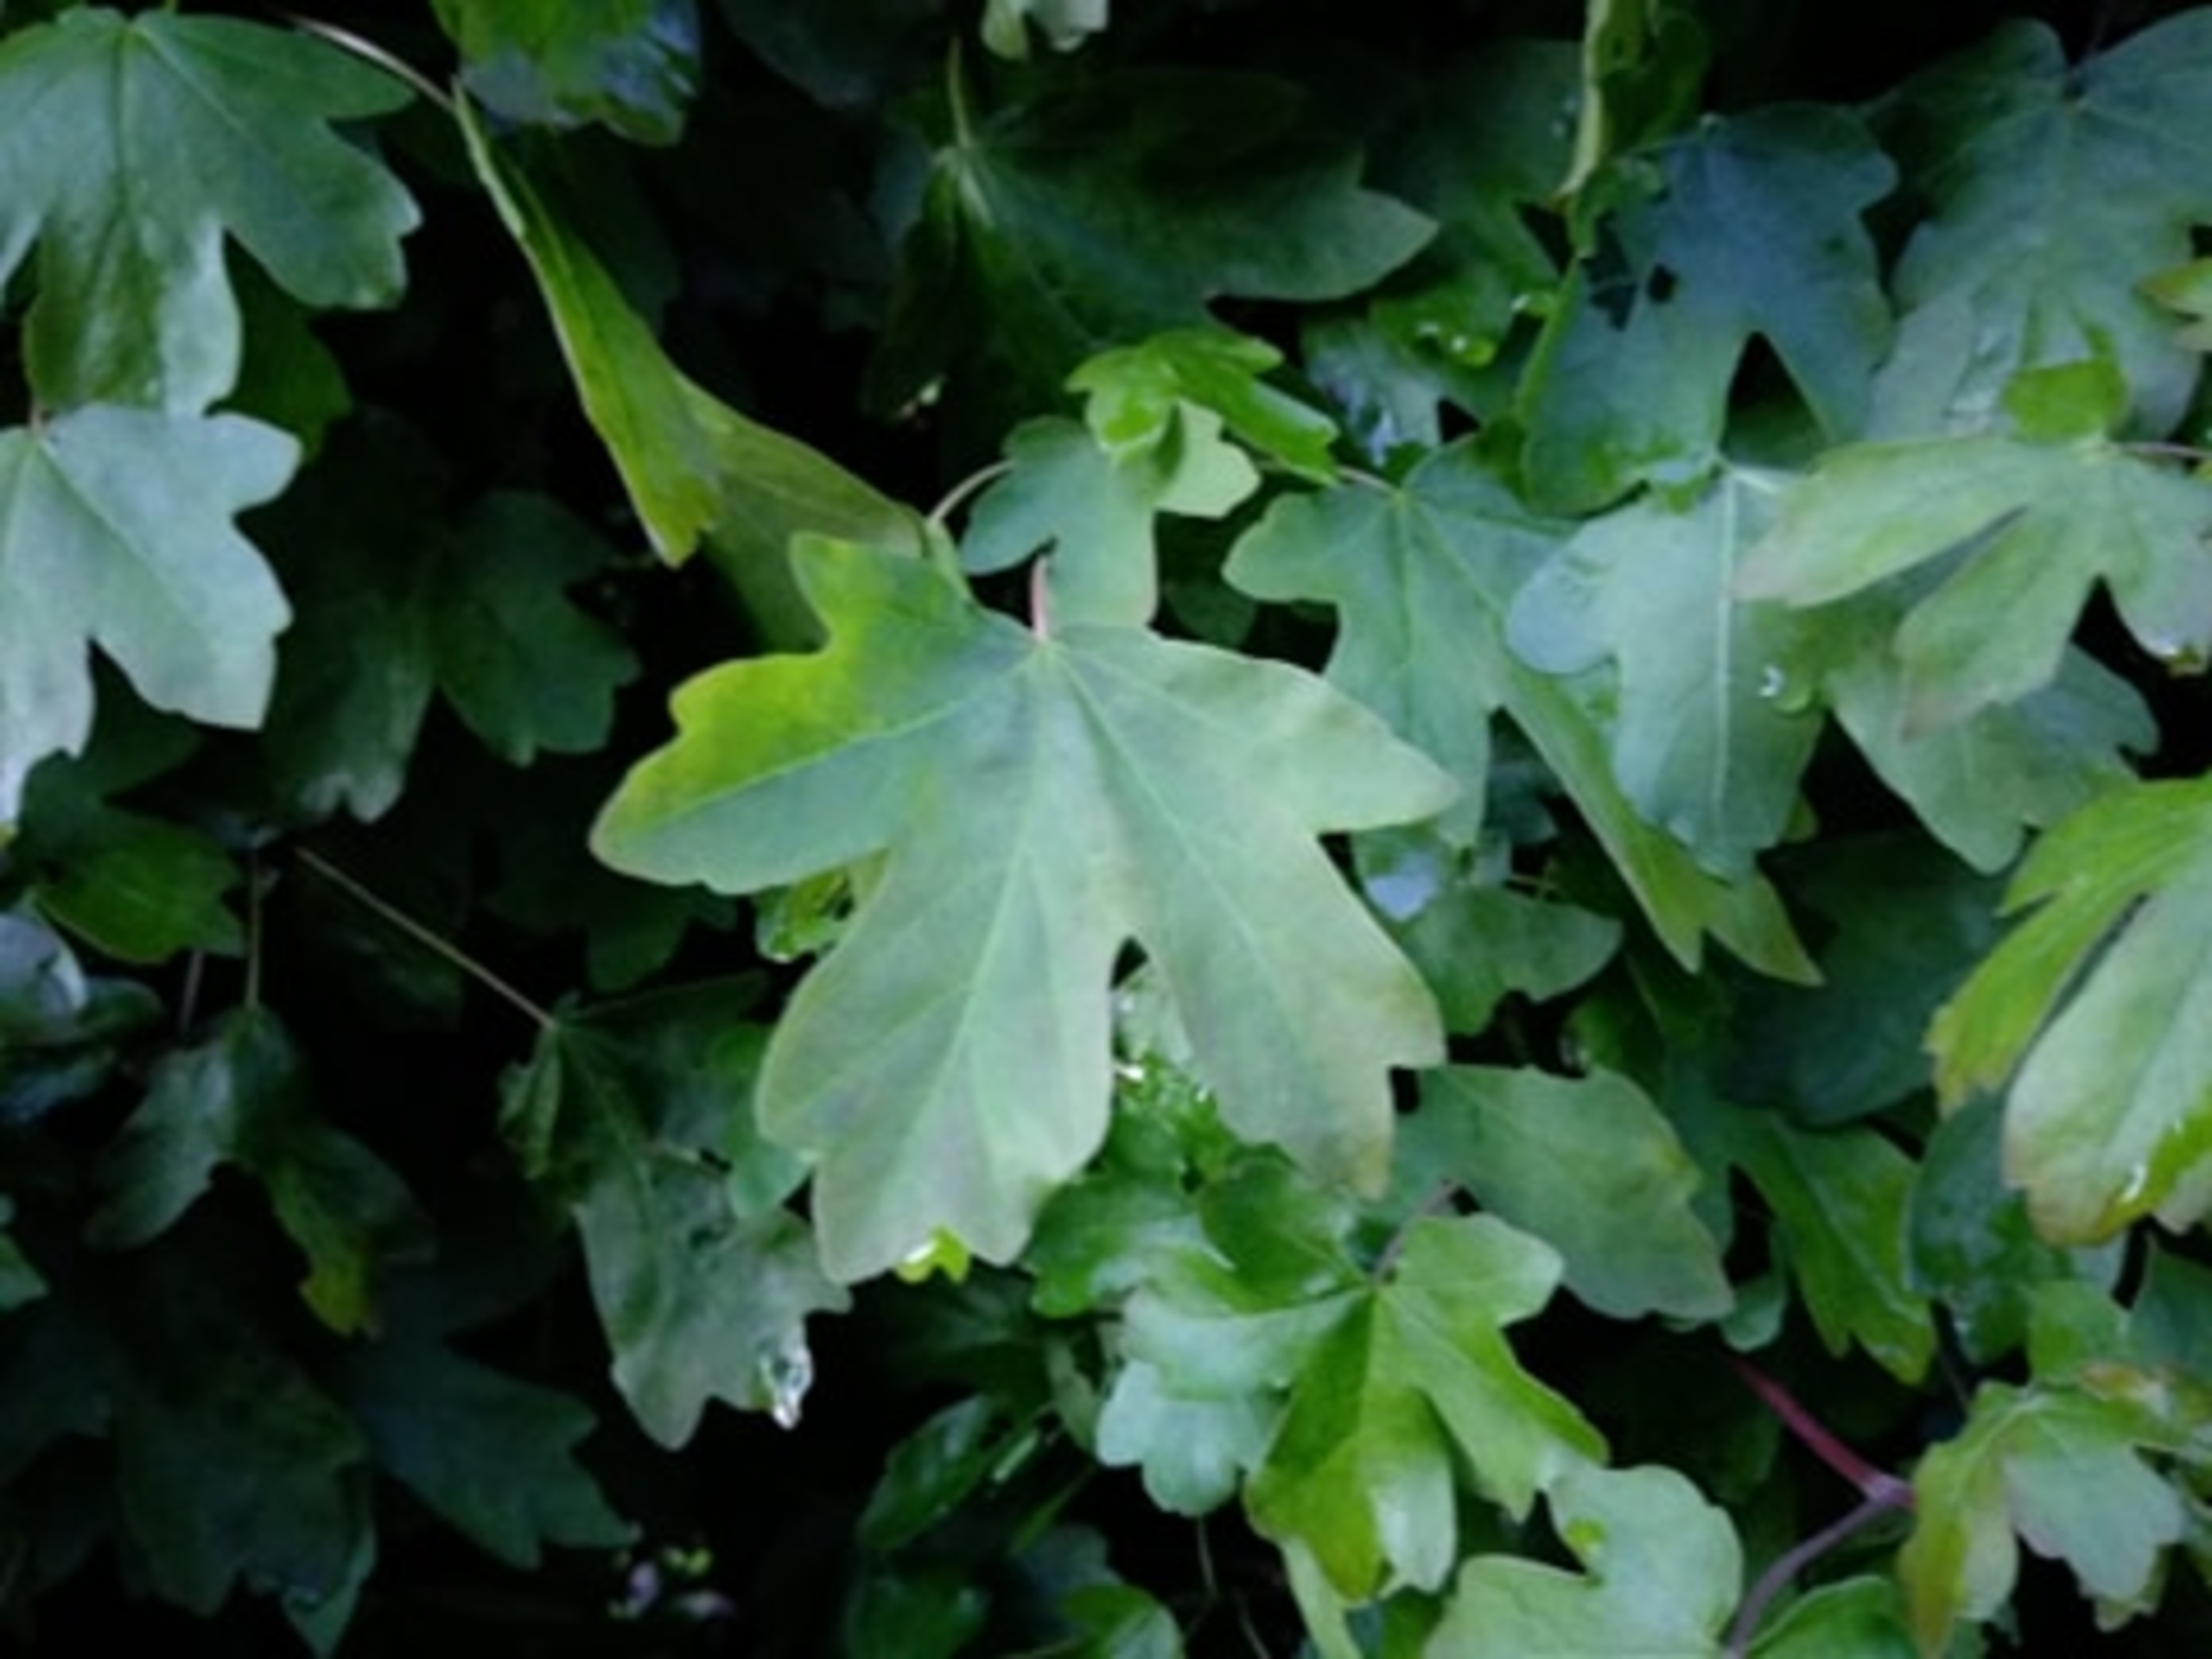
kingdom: Plantae
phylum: Tracheophyta
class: Magnoliopsida
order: Sapindales
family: Sapindaceae
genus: Acer
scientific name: Acer campestre
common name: Navr
